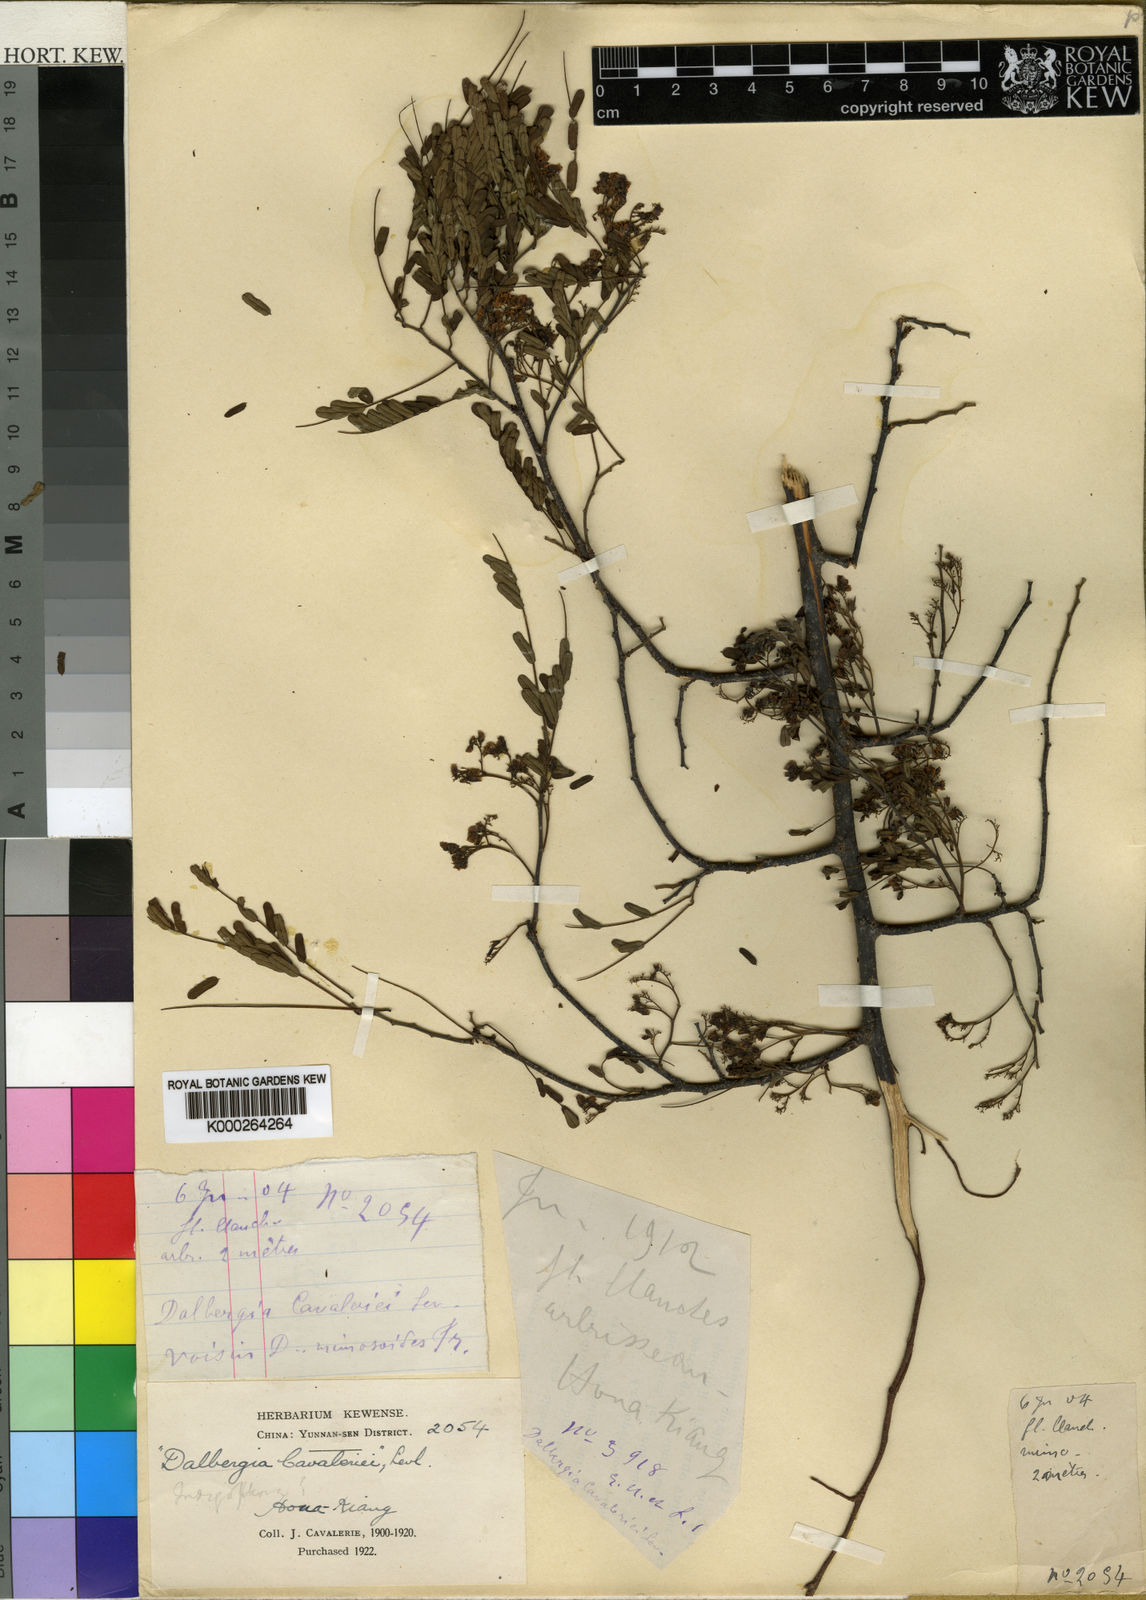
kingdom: Plantae
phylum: Tracheophyta
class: Magnoliopsida
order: Fabales
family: Fabaceae
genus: Dalbergia
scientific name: Dalbergia
